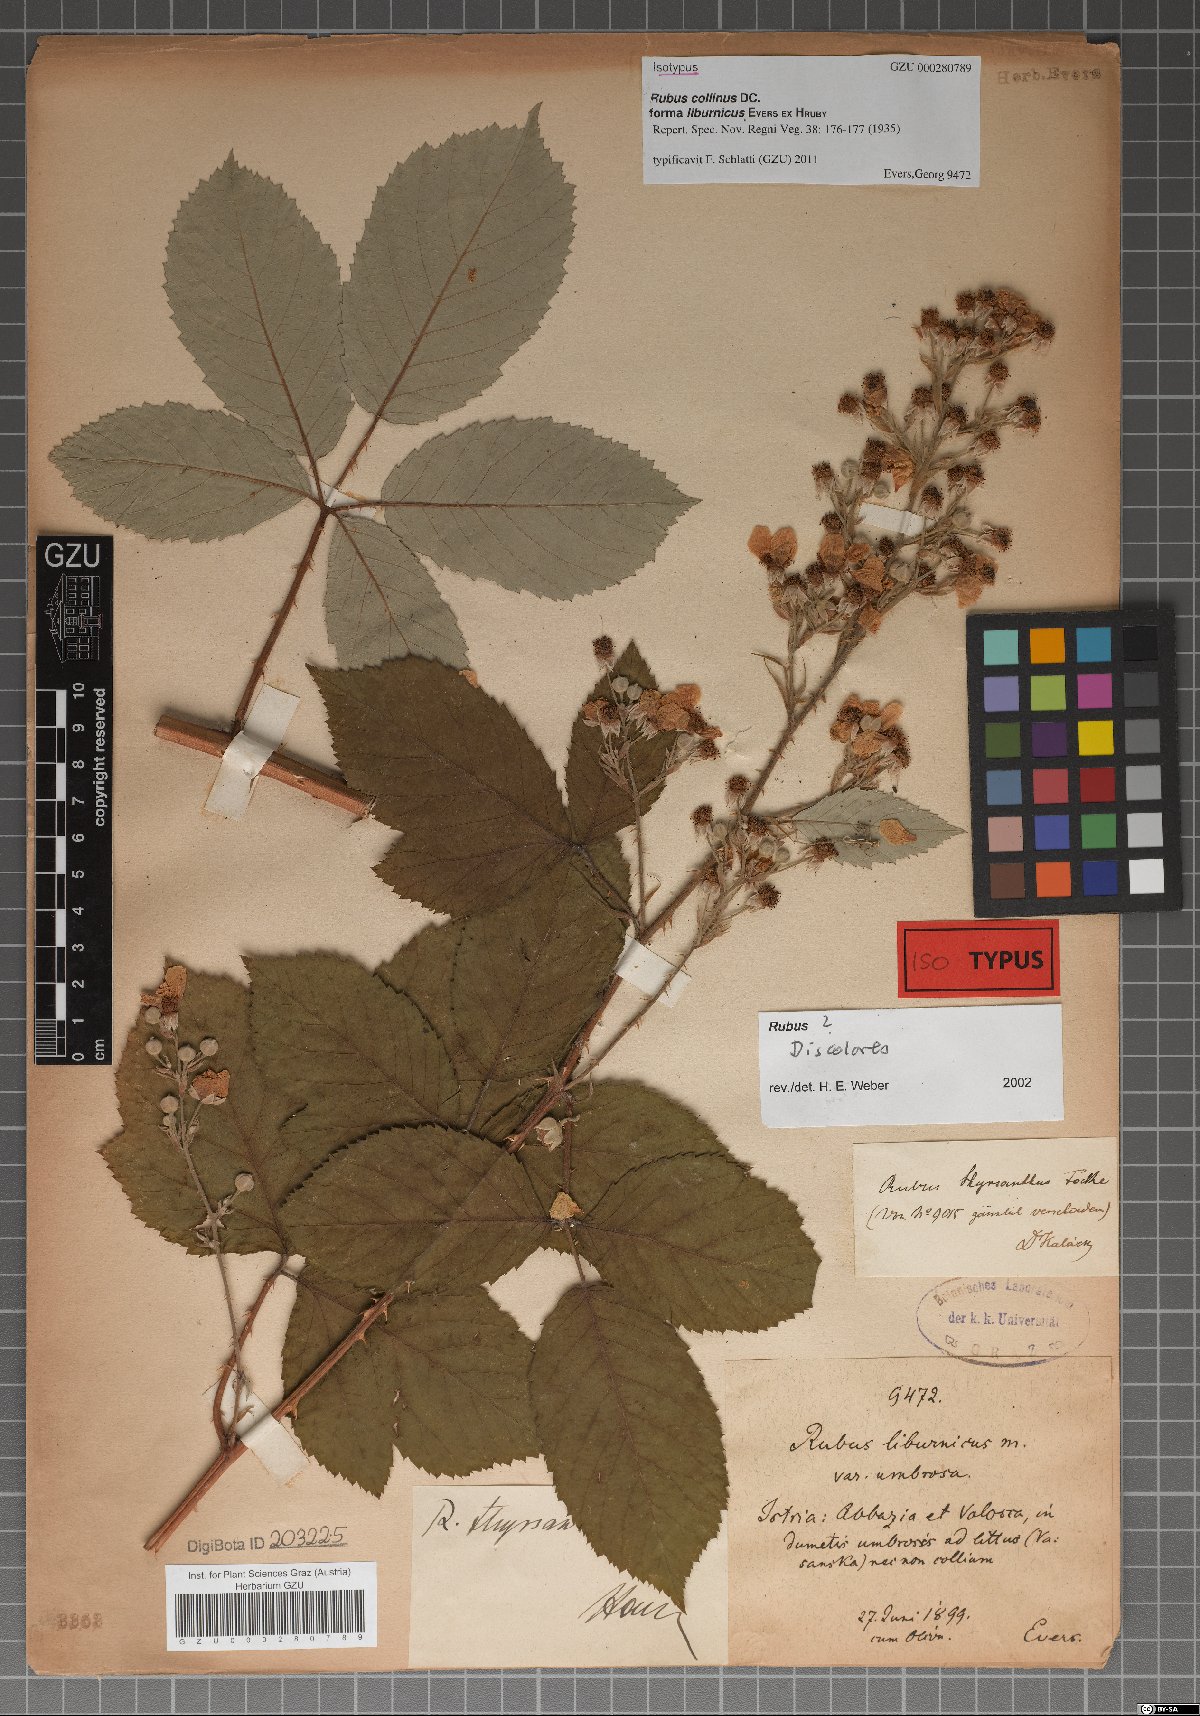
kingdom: Plantae
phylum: Tracheophyta
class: Magnoliopsida
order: Rosales
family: Rosaceae
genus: Rubus
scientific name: Rubus collinus
